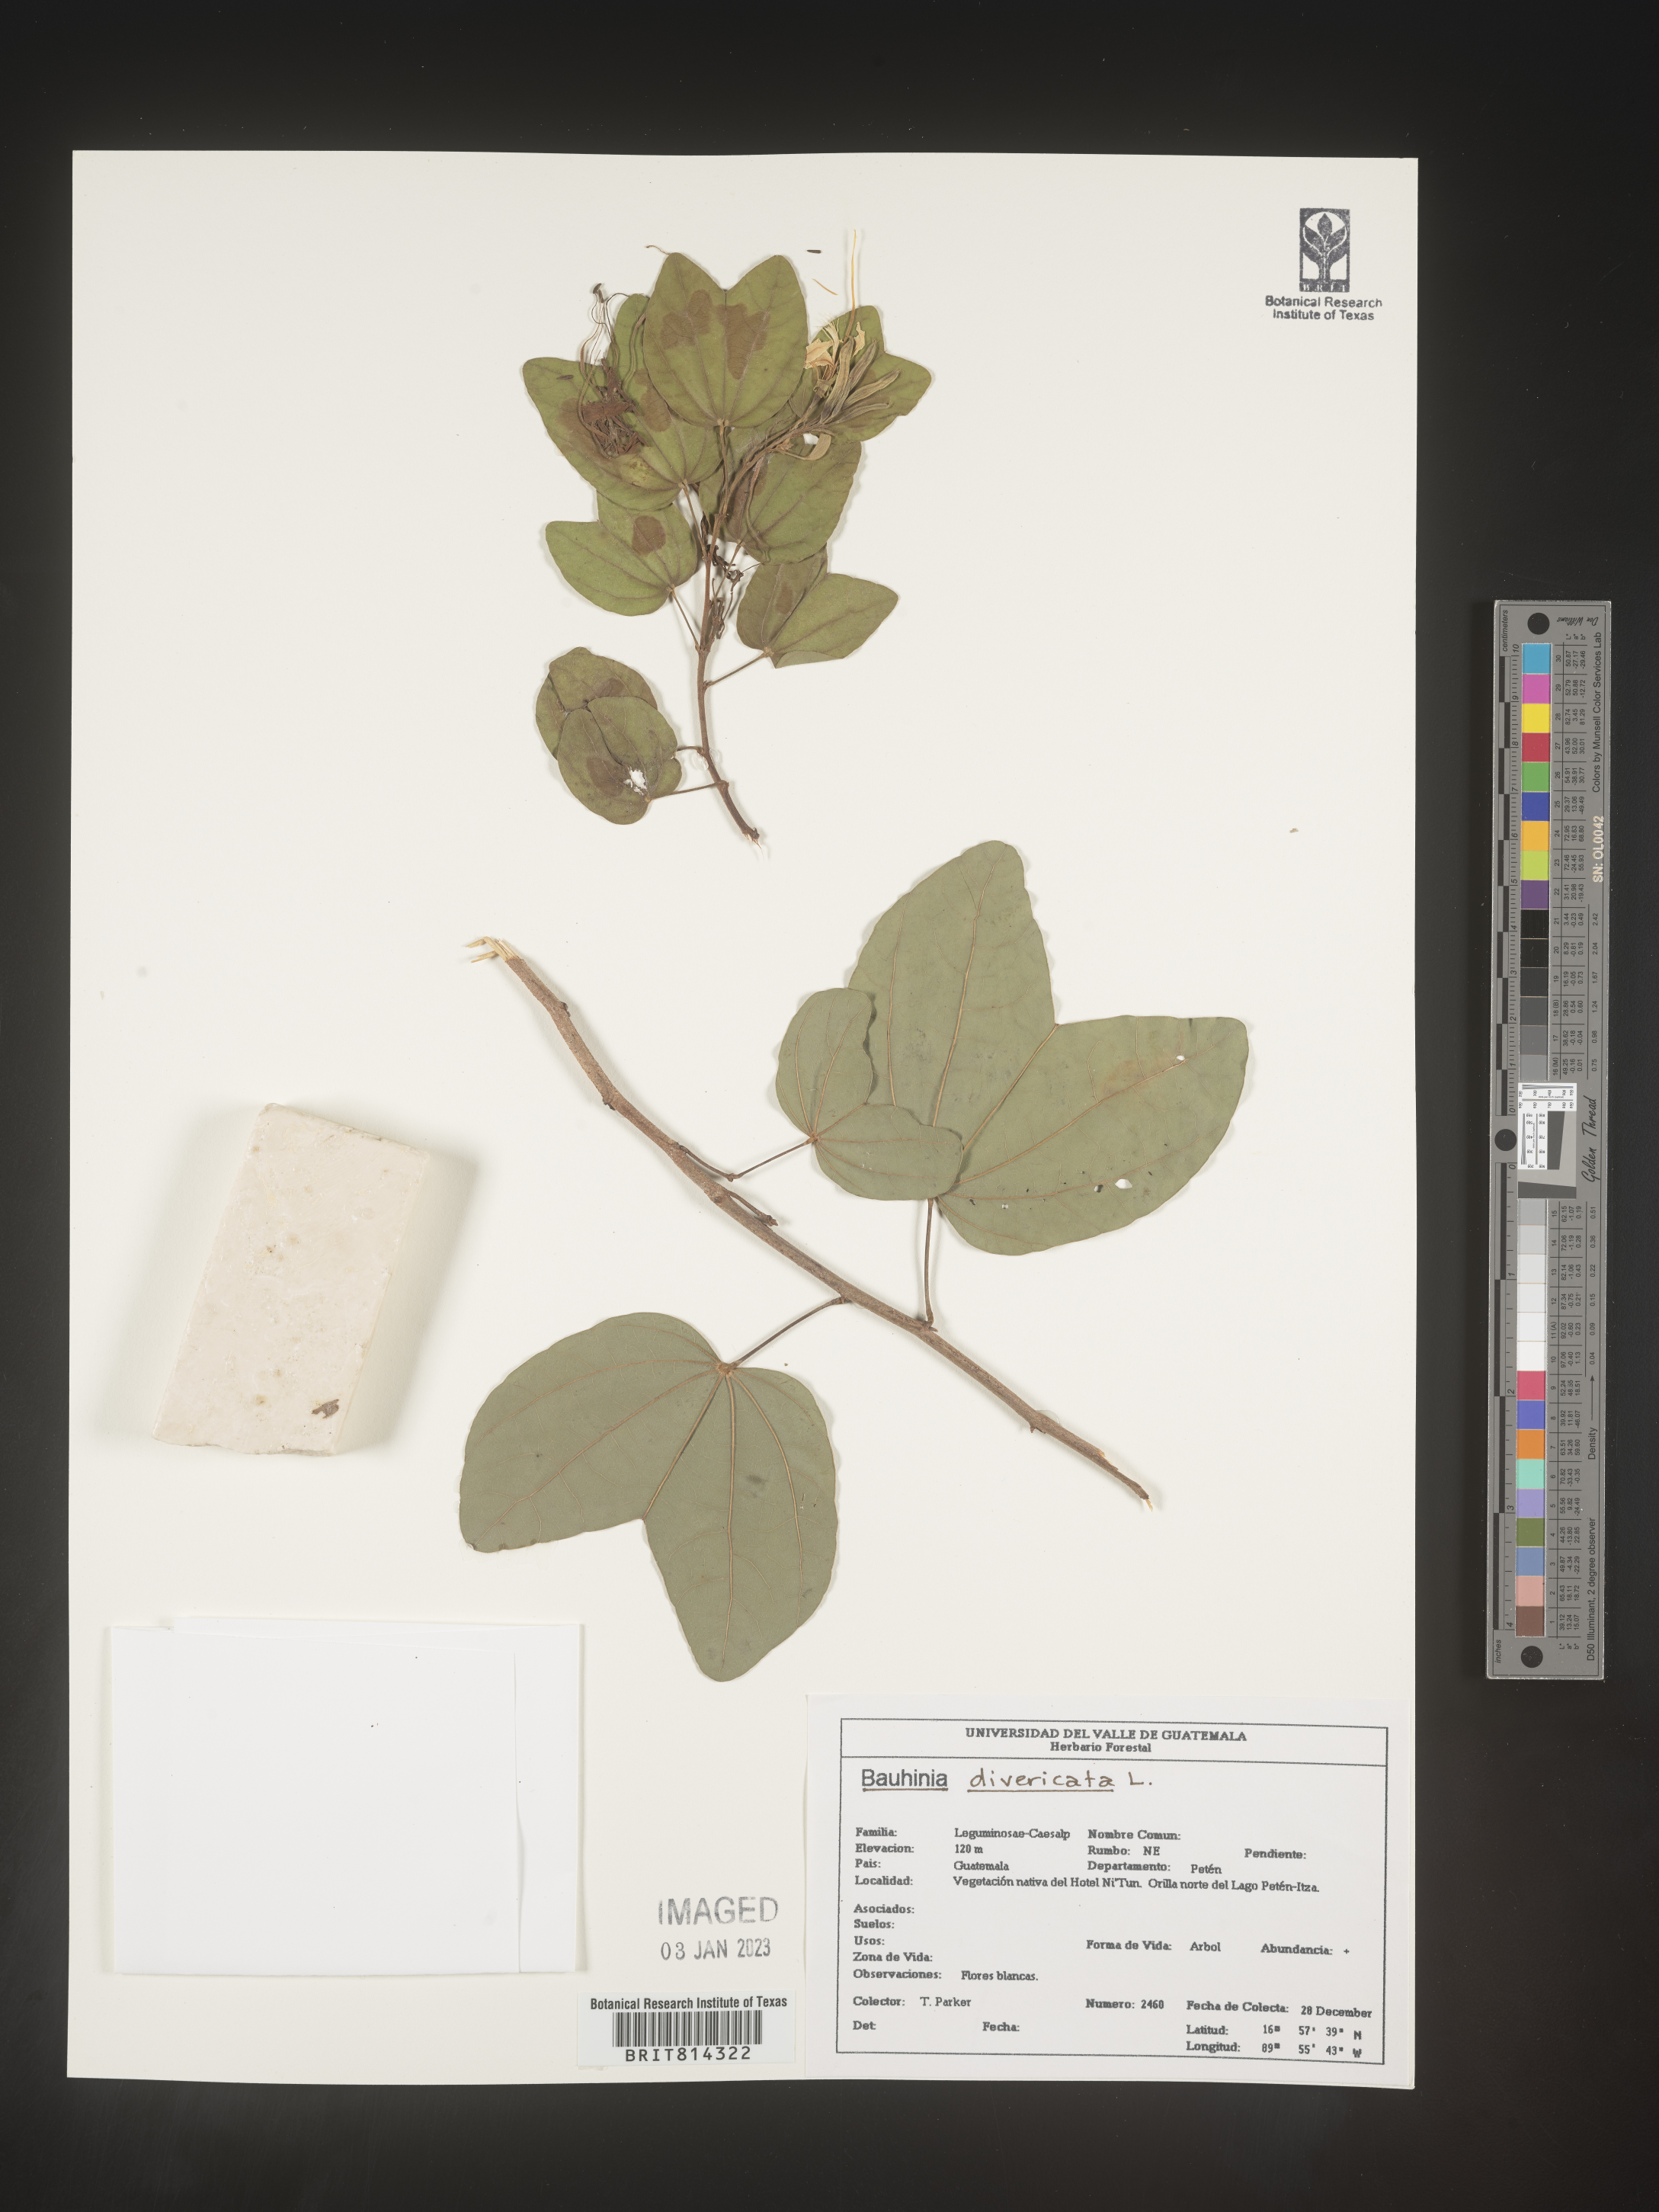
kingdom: Plantae
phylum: Tracheophyta
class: Magnoliopsida
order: Fabales
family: Fabaceae
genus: Bauhinia
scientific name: Bauhinia
